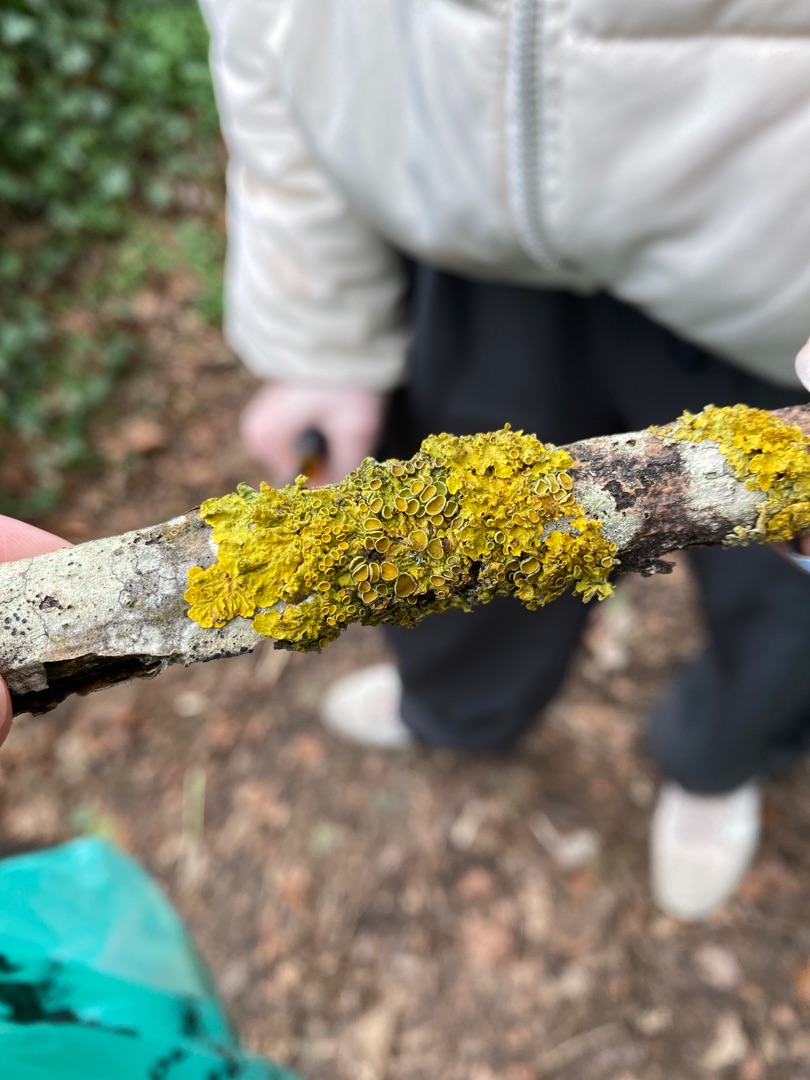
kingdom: Fungi
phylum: Ascomycota
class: Lecanoromycetes
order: Teloschistales
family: Teloschistaceae
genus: Xanthoria
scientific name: Xanthoria parietina
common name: Almindelig væggelav
